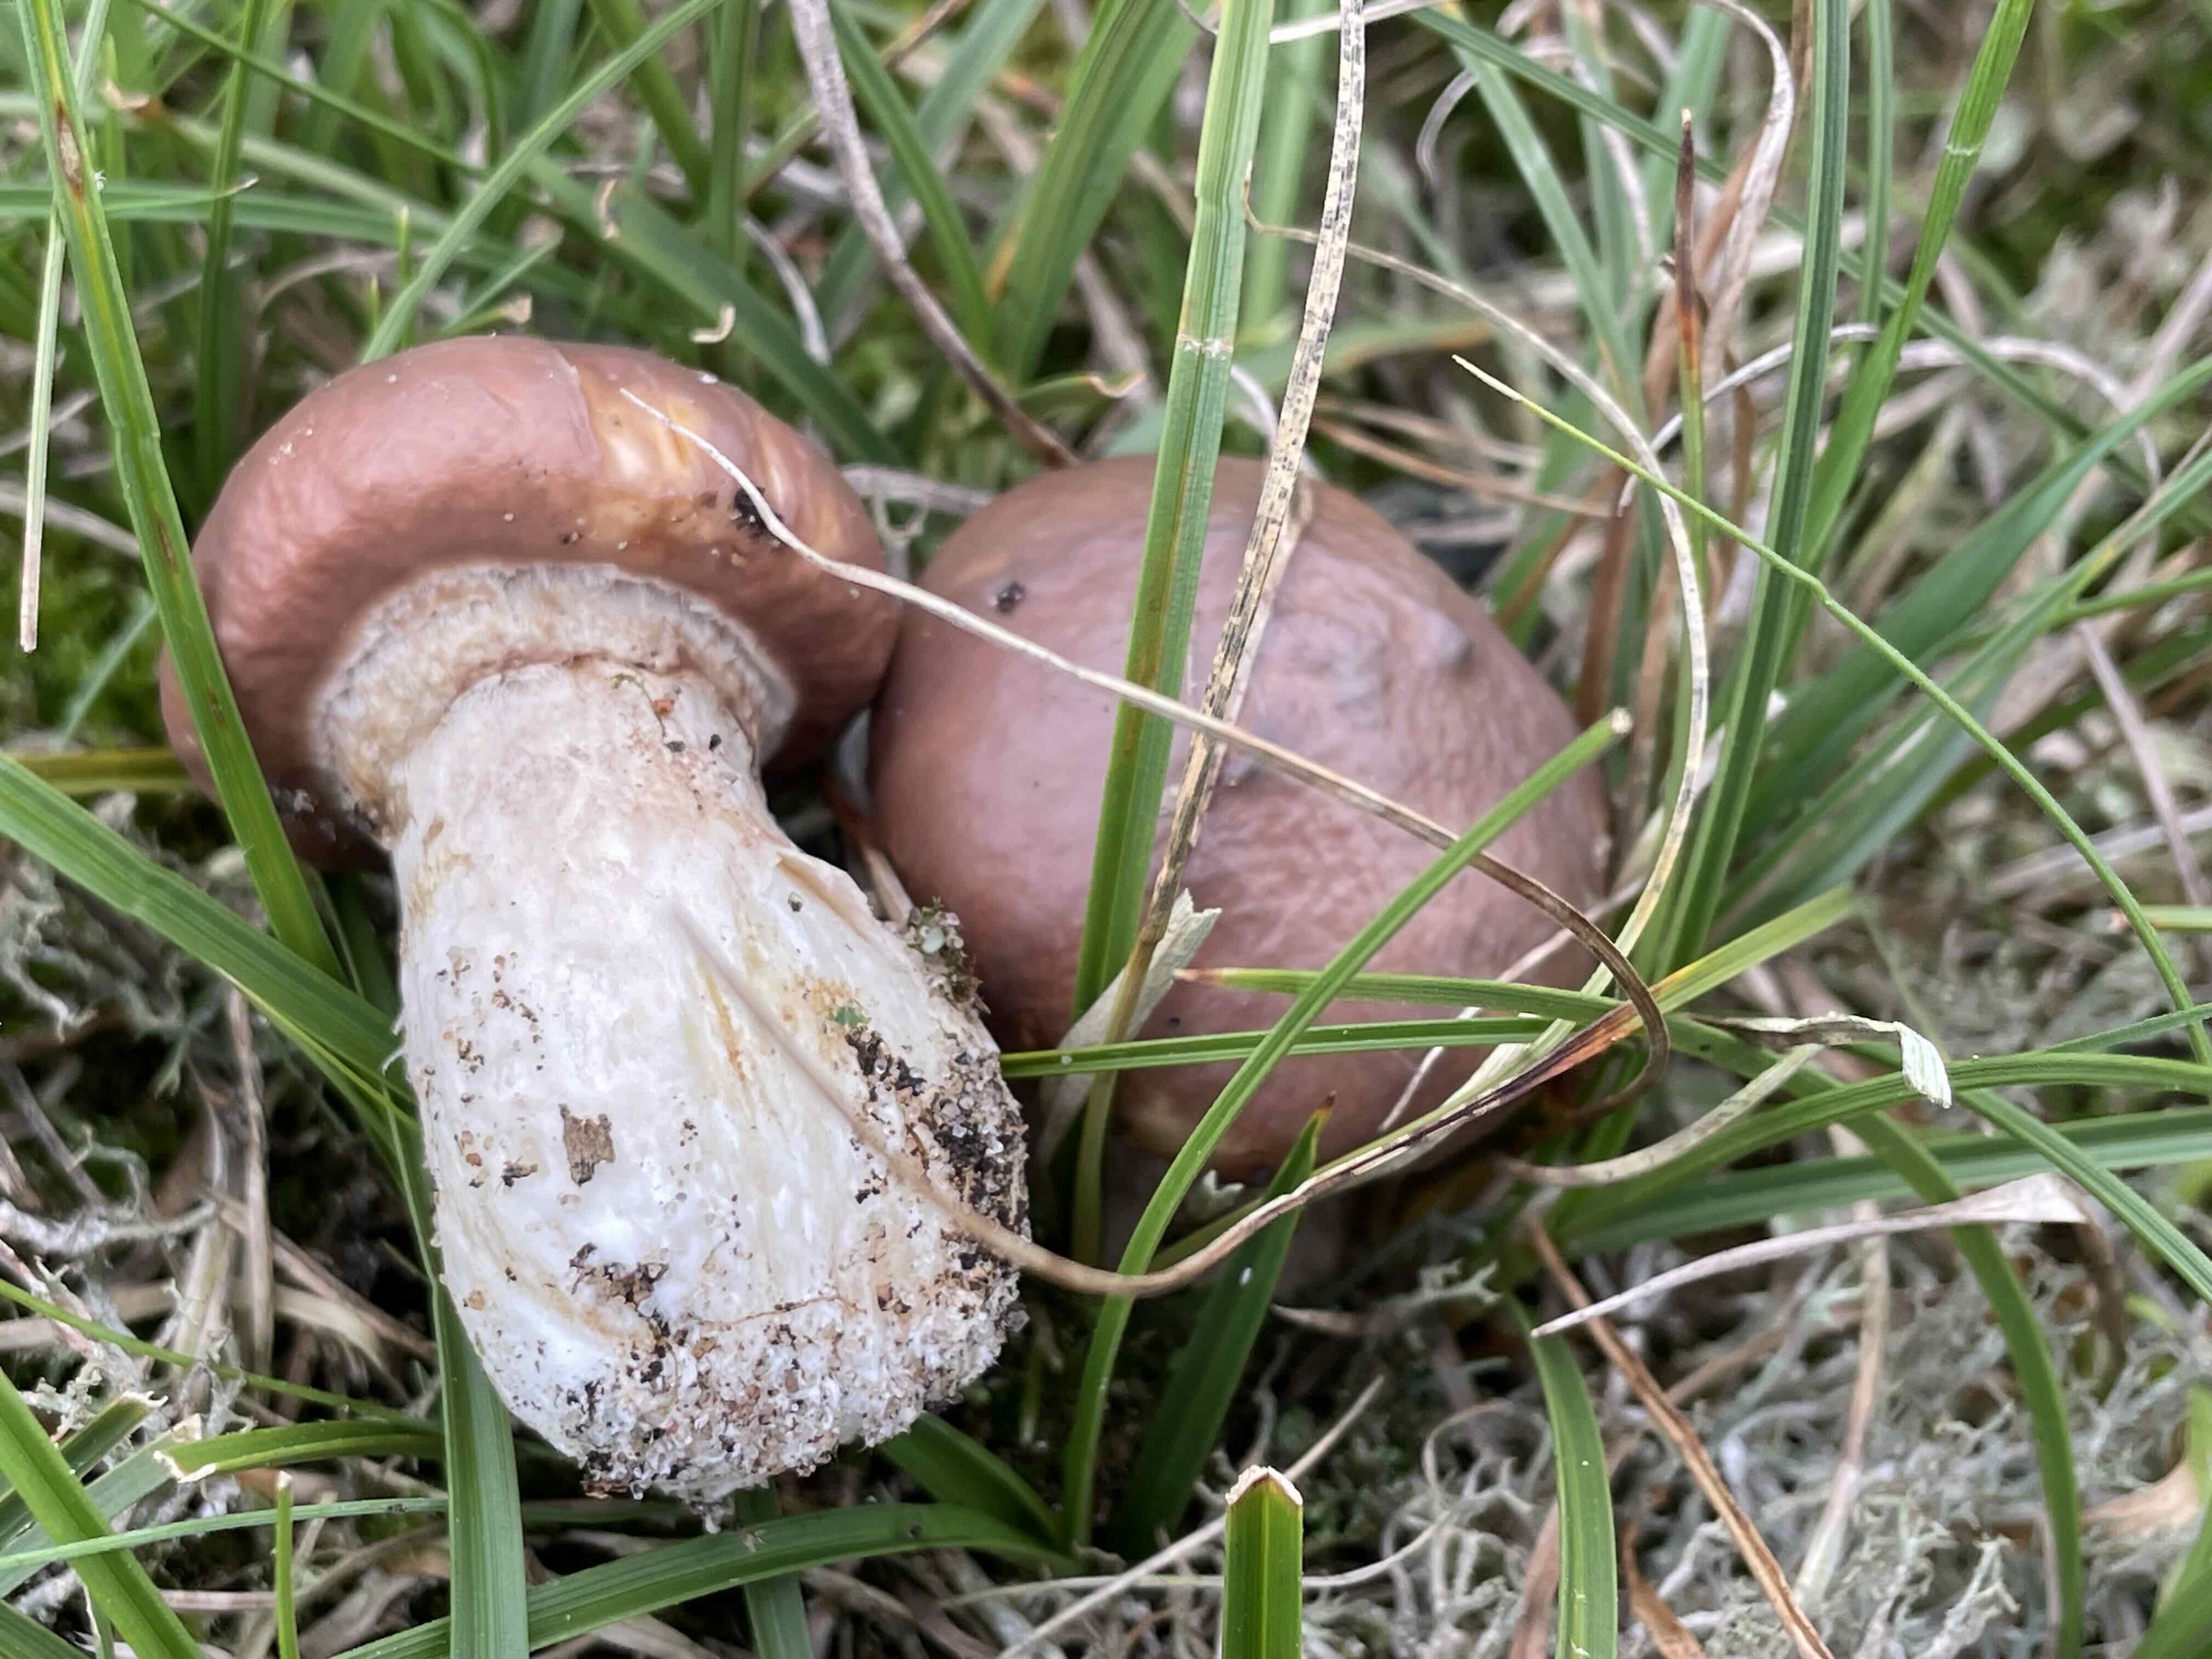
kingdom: Fungi
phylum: Basidiomycota
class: Agaricomycetes
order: Boletales
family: Suillaceae
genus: Suillus
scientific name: Suillus luteus
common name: brungul slimrørhat
